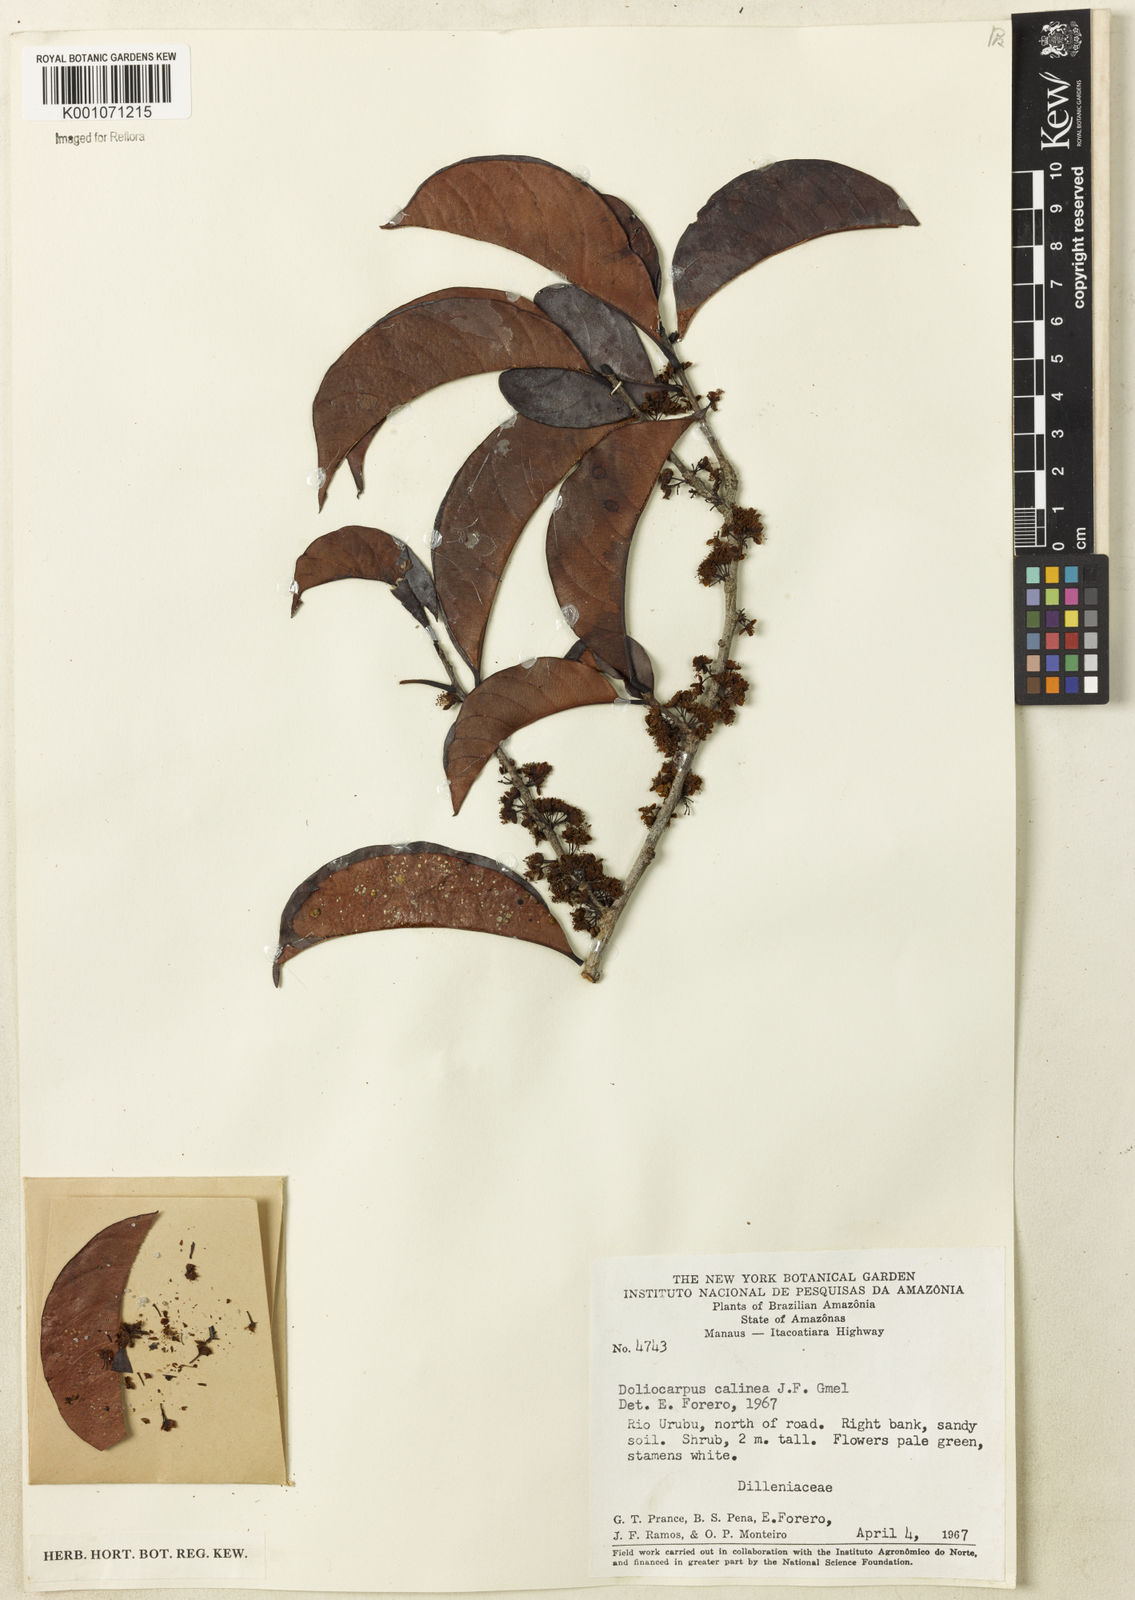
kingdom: Plantae
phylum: Tracheophyta
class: Magnoliopsida
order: Dilleniales
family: Dilleniaceae
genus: Doliocarpus
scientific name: Doliocarpus spraguei
